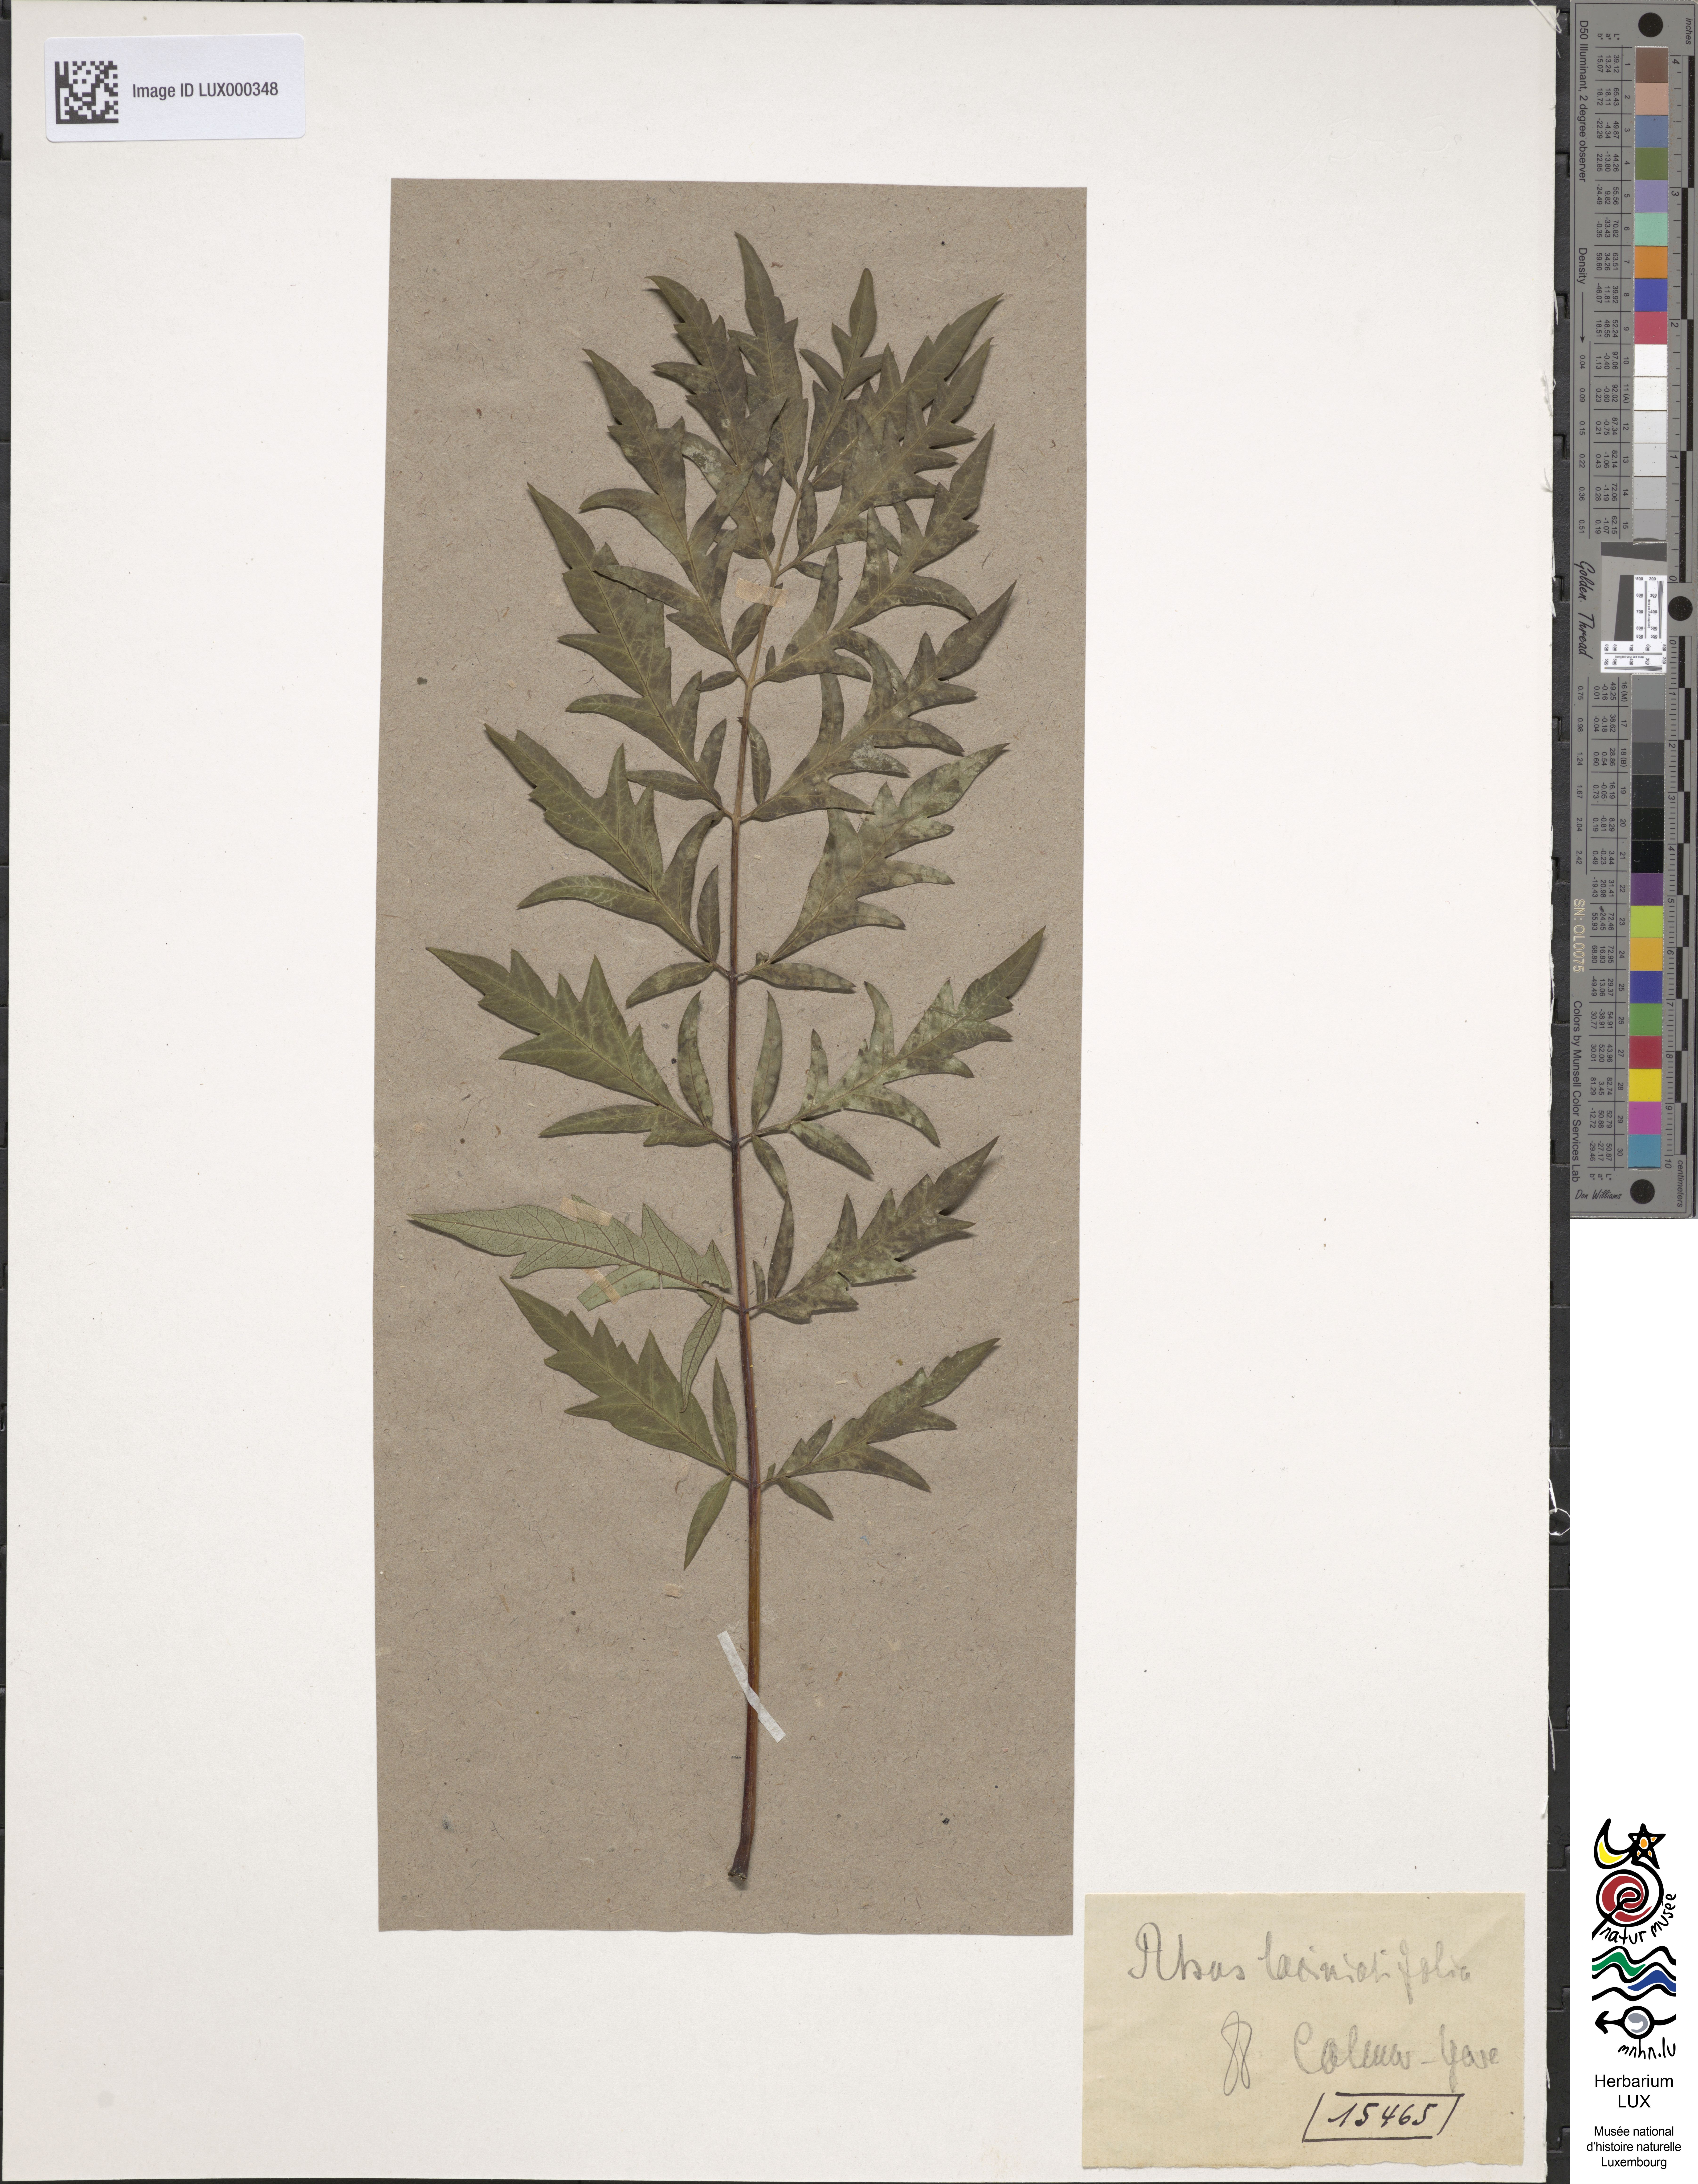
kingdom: Plantae
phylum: Tracheophyta
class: Magnoliopsida
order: Sapindales
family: Anacardiaceae
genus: Rhus
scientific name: Rhus typhina
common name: Staghorn sumac
